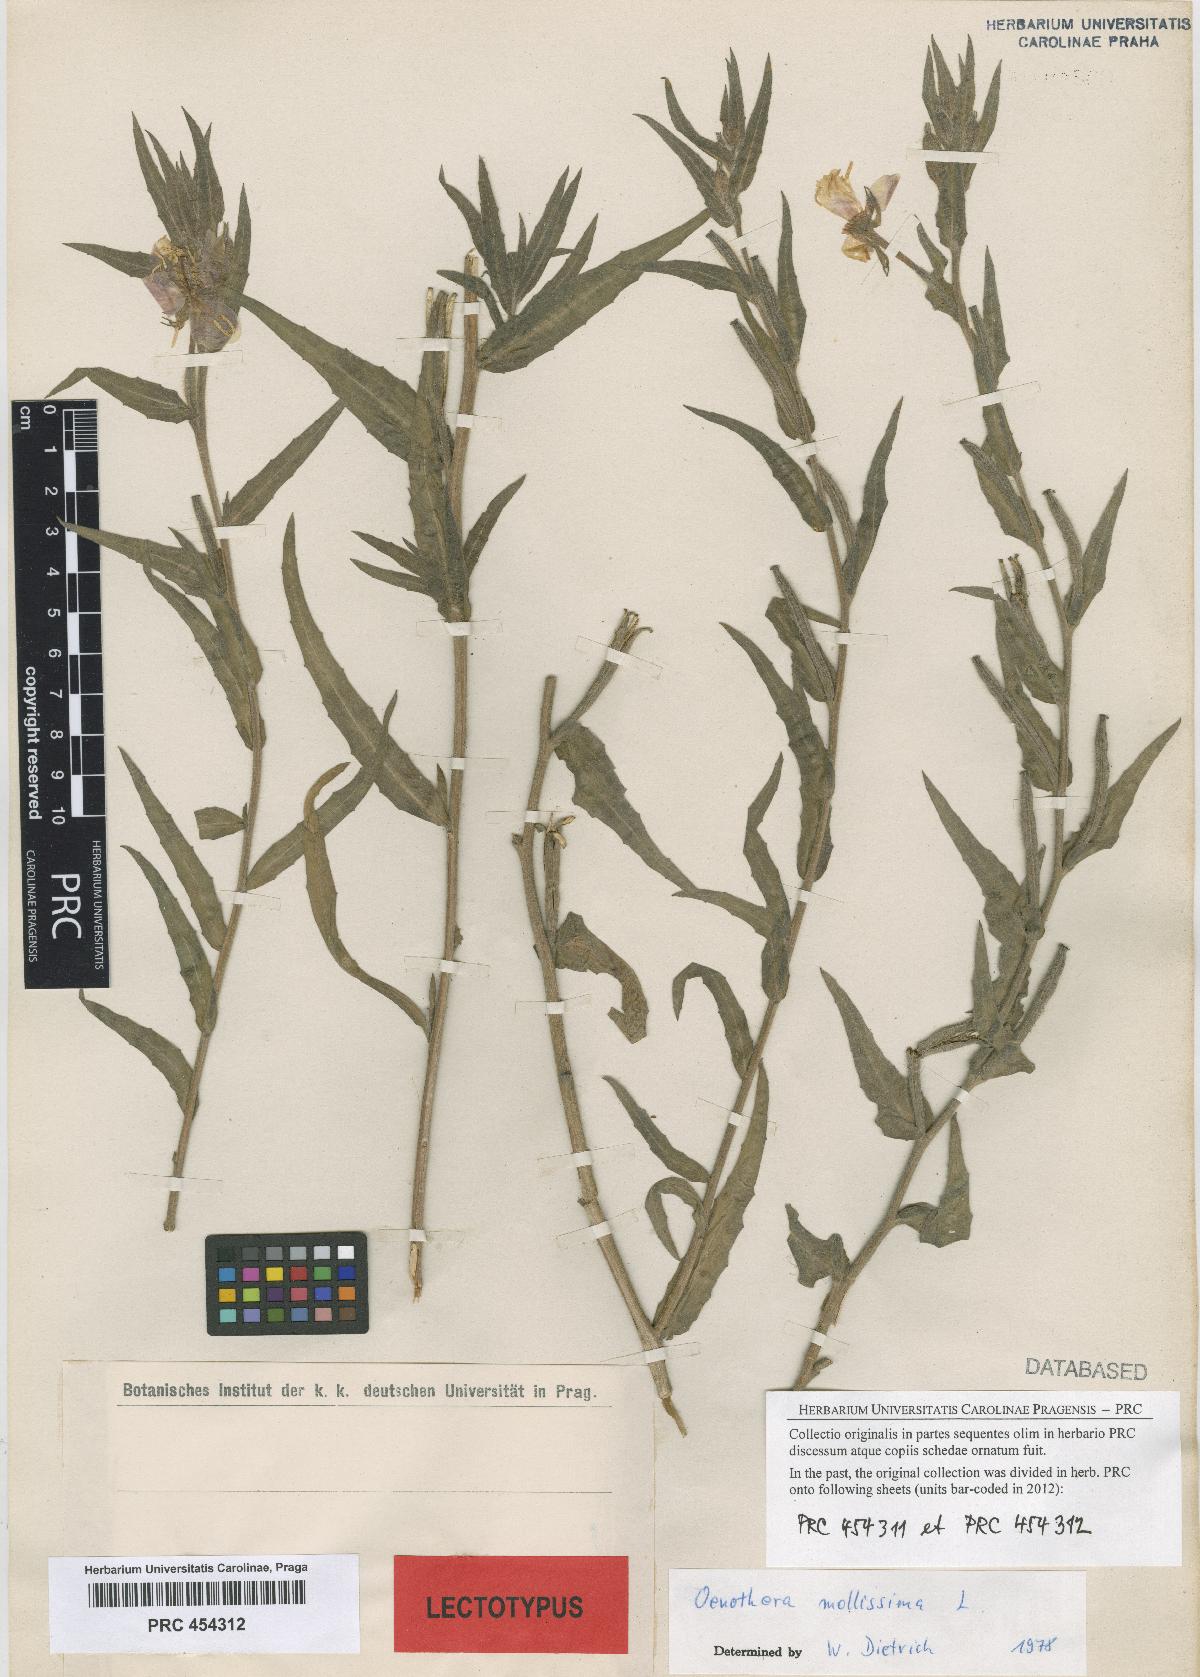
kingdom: Plantae
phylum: Tracheophyta
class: Magnoliopsida
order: Myrtales
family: Onagraceae
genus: Oenothera
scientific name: Oenothera mollissima
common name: Argentine evening primrose
